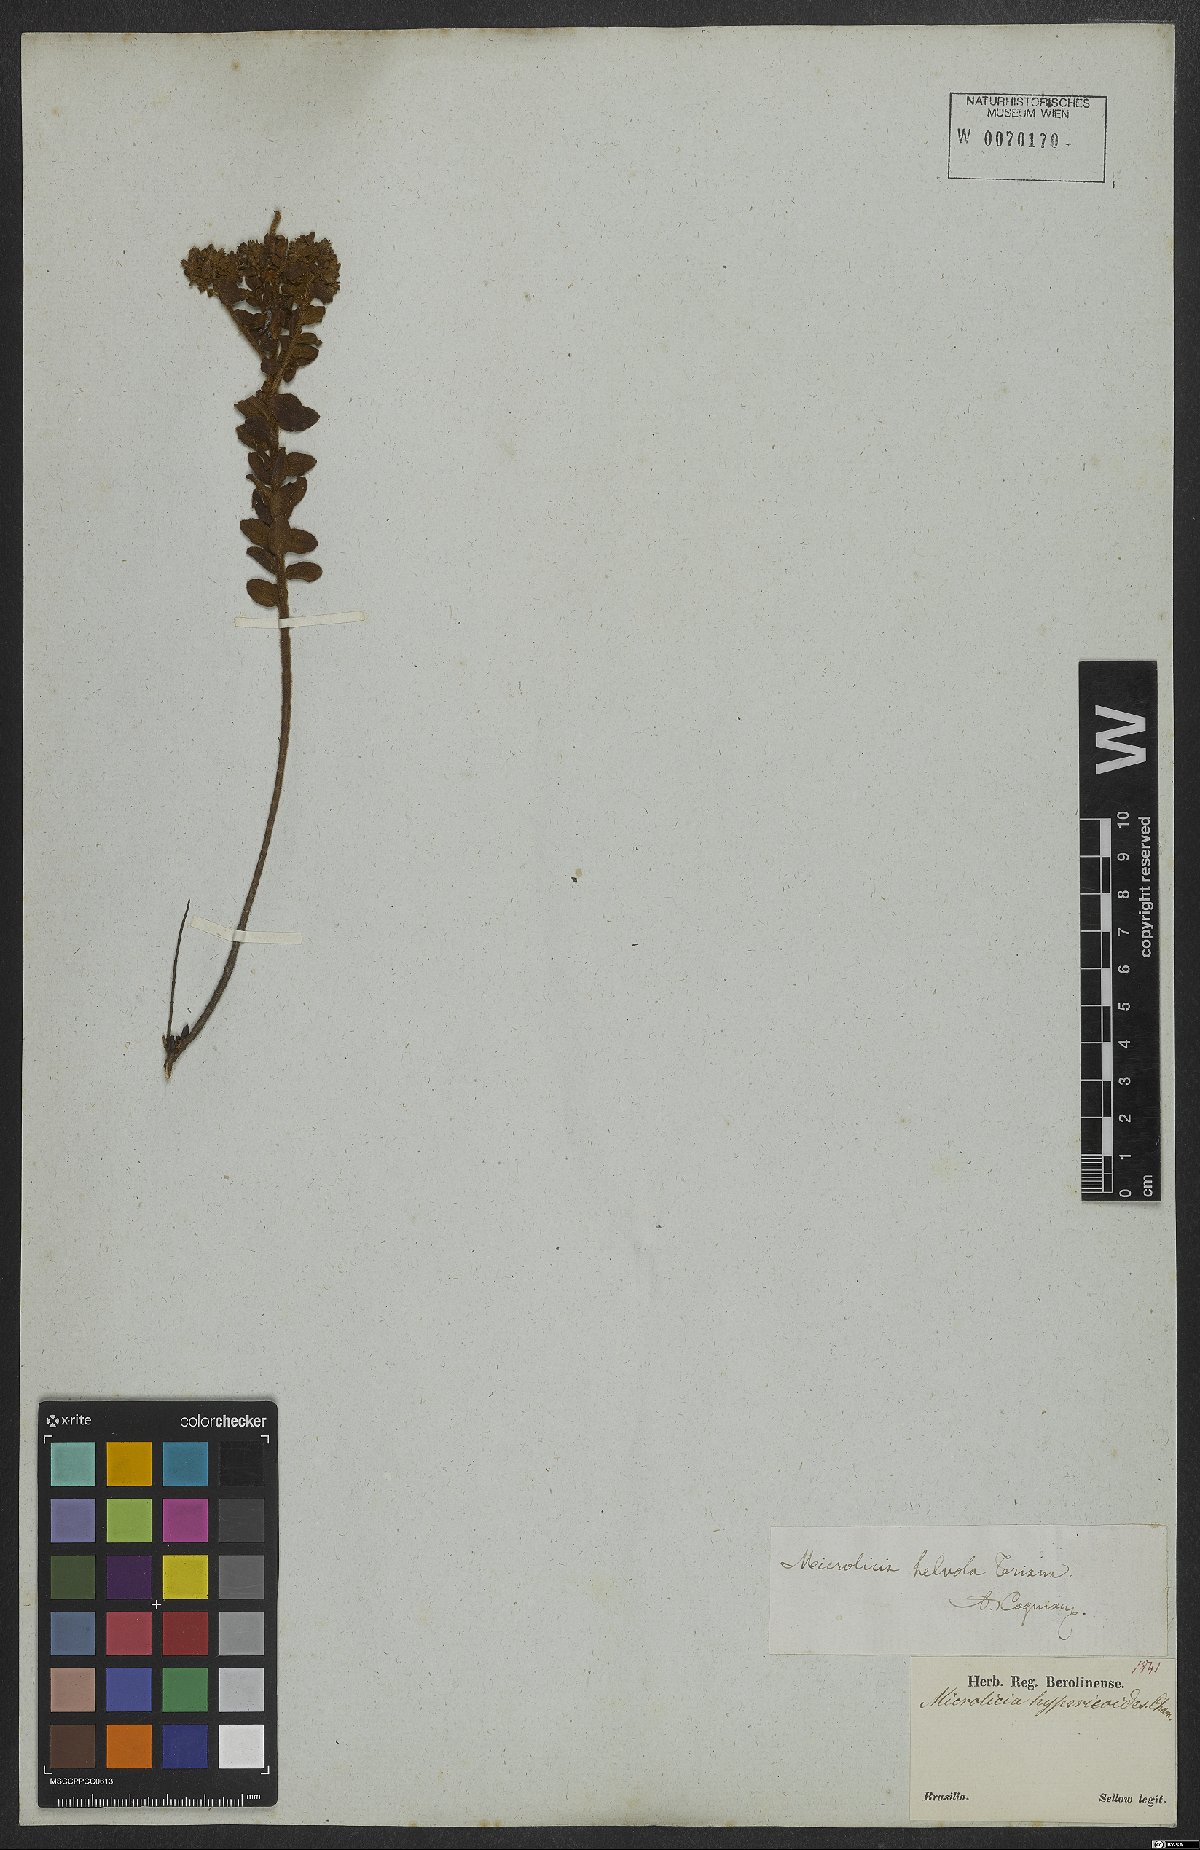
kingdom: Plantae
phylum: Tracheophyta
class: Magnoliopsida
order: Myrtales
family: Melastomataceae
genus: Microlicia
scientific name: Microlicia helvola
